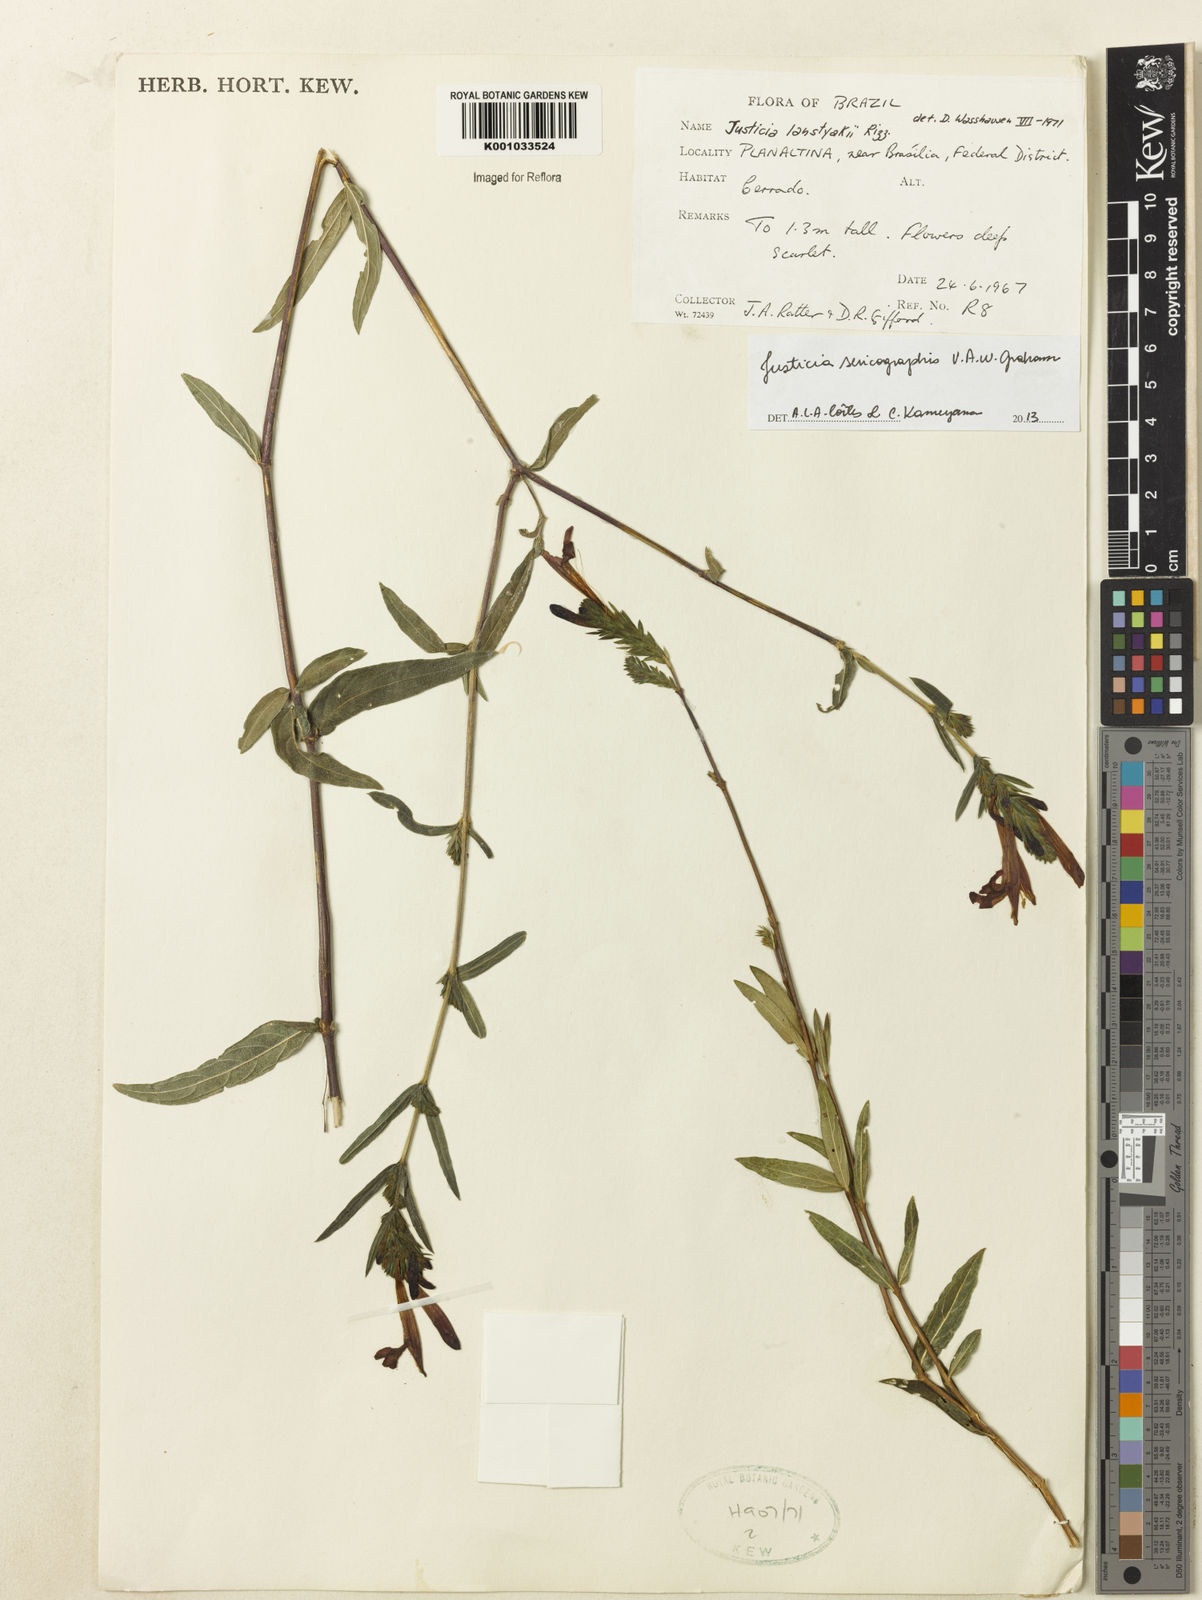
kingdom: Plantae
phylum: Tracheophyta
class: Magnoliopsida
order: Lamiales
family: Acanthaceae
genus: Dianthera
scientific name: Dianthera rigida
